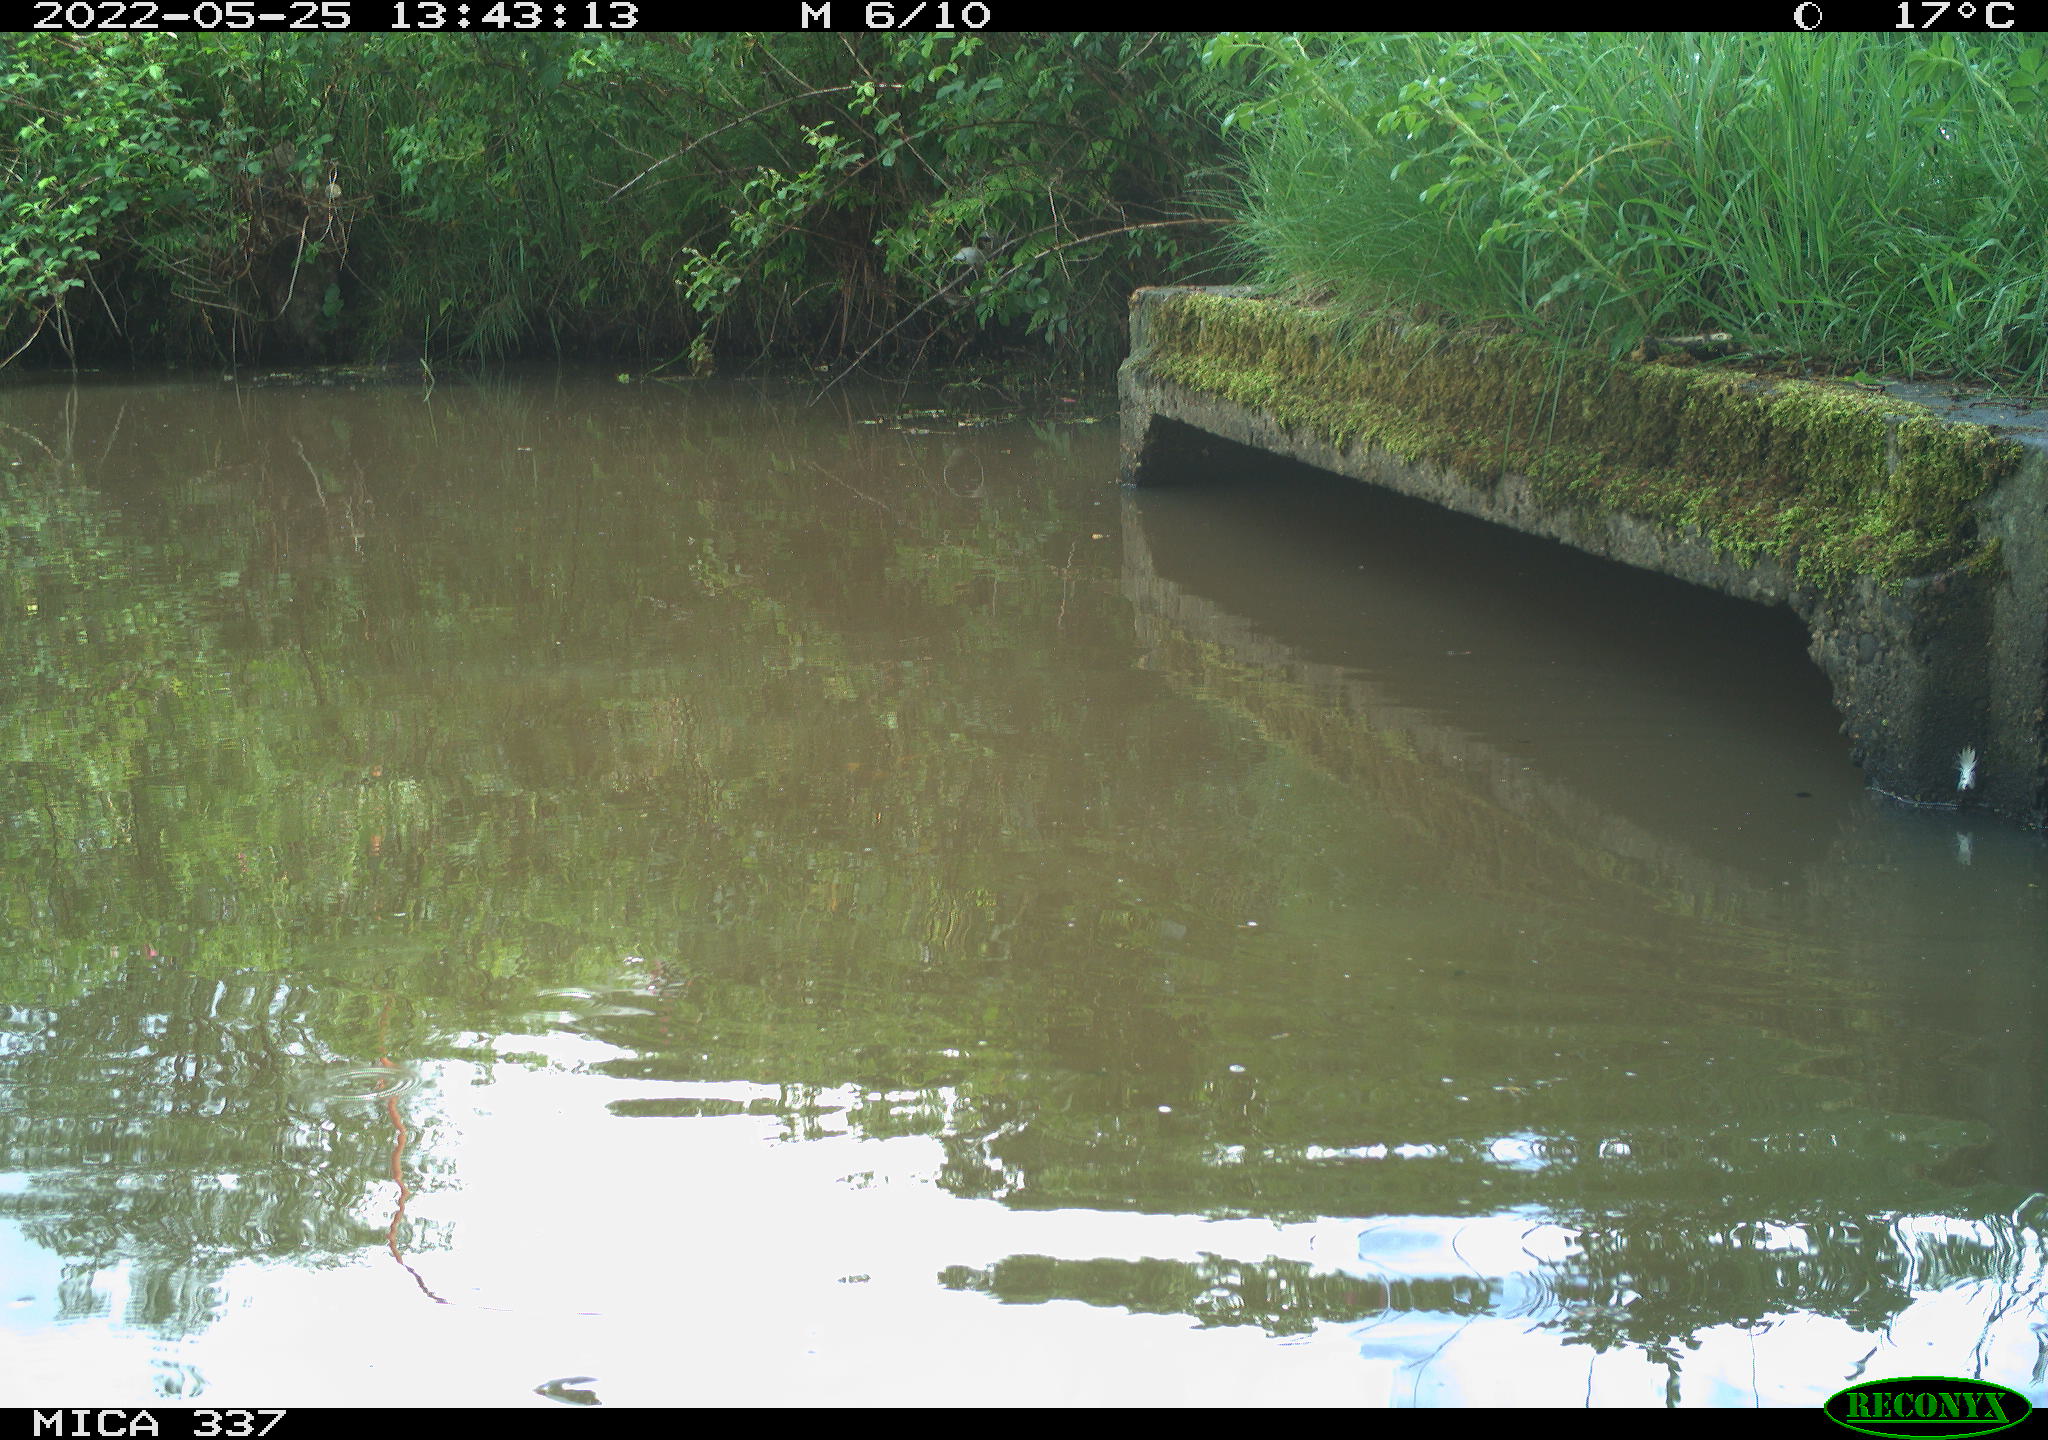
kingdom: Animalia
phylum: Chordata
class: Aves
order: Gruiformes
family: Rallidae
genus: Gallinula
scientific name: Gallinula chloropus
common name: Common moorhen
